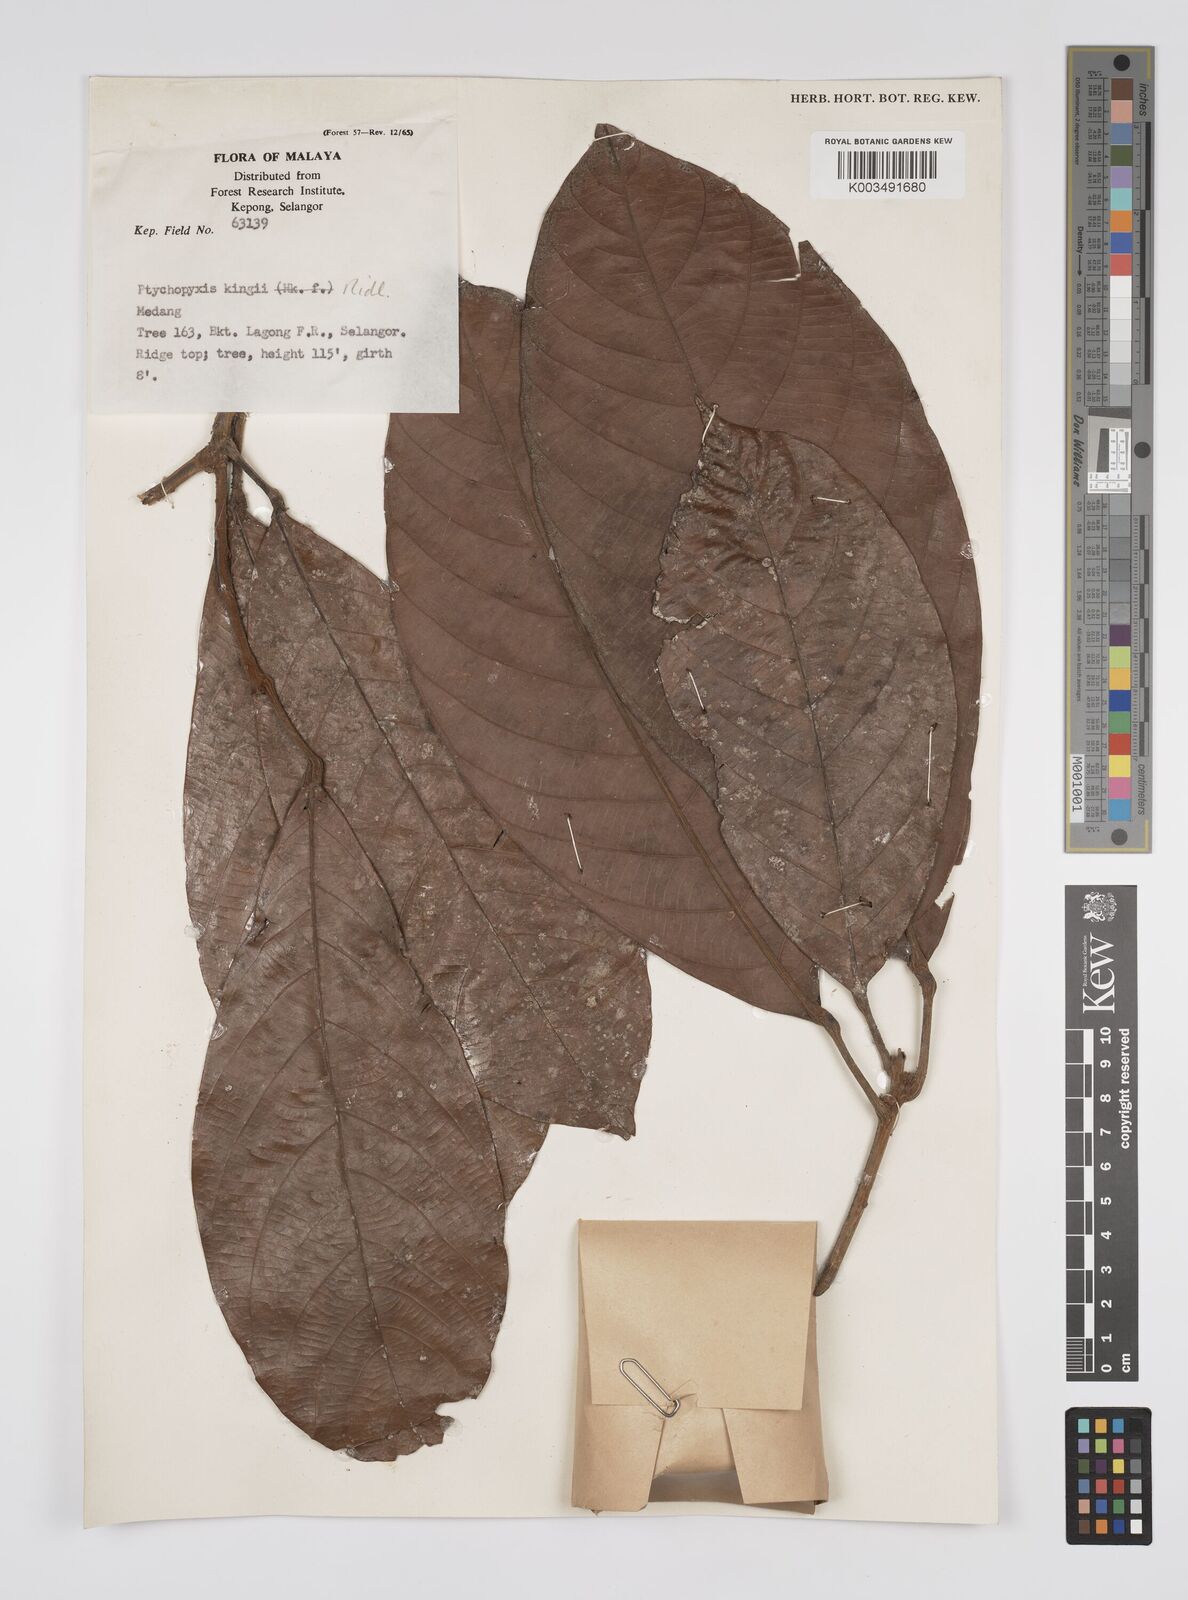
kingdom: Plantae
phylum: Tracheophyta
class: Magnoliopsida
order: Malpighiales
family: Euphorbiaceae
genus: Ptychopyxis
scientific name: Ptychopyxis kingii
